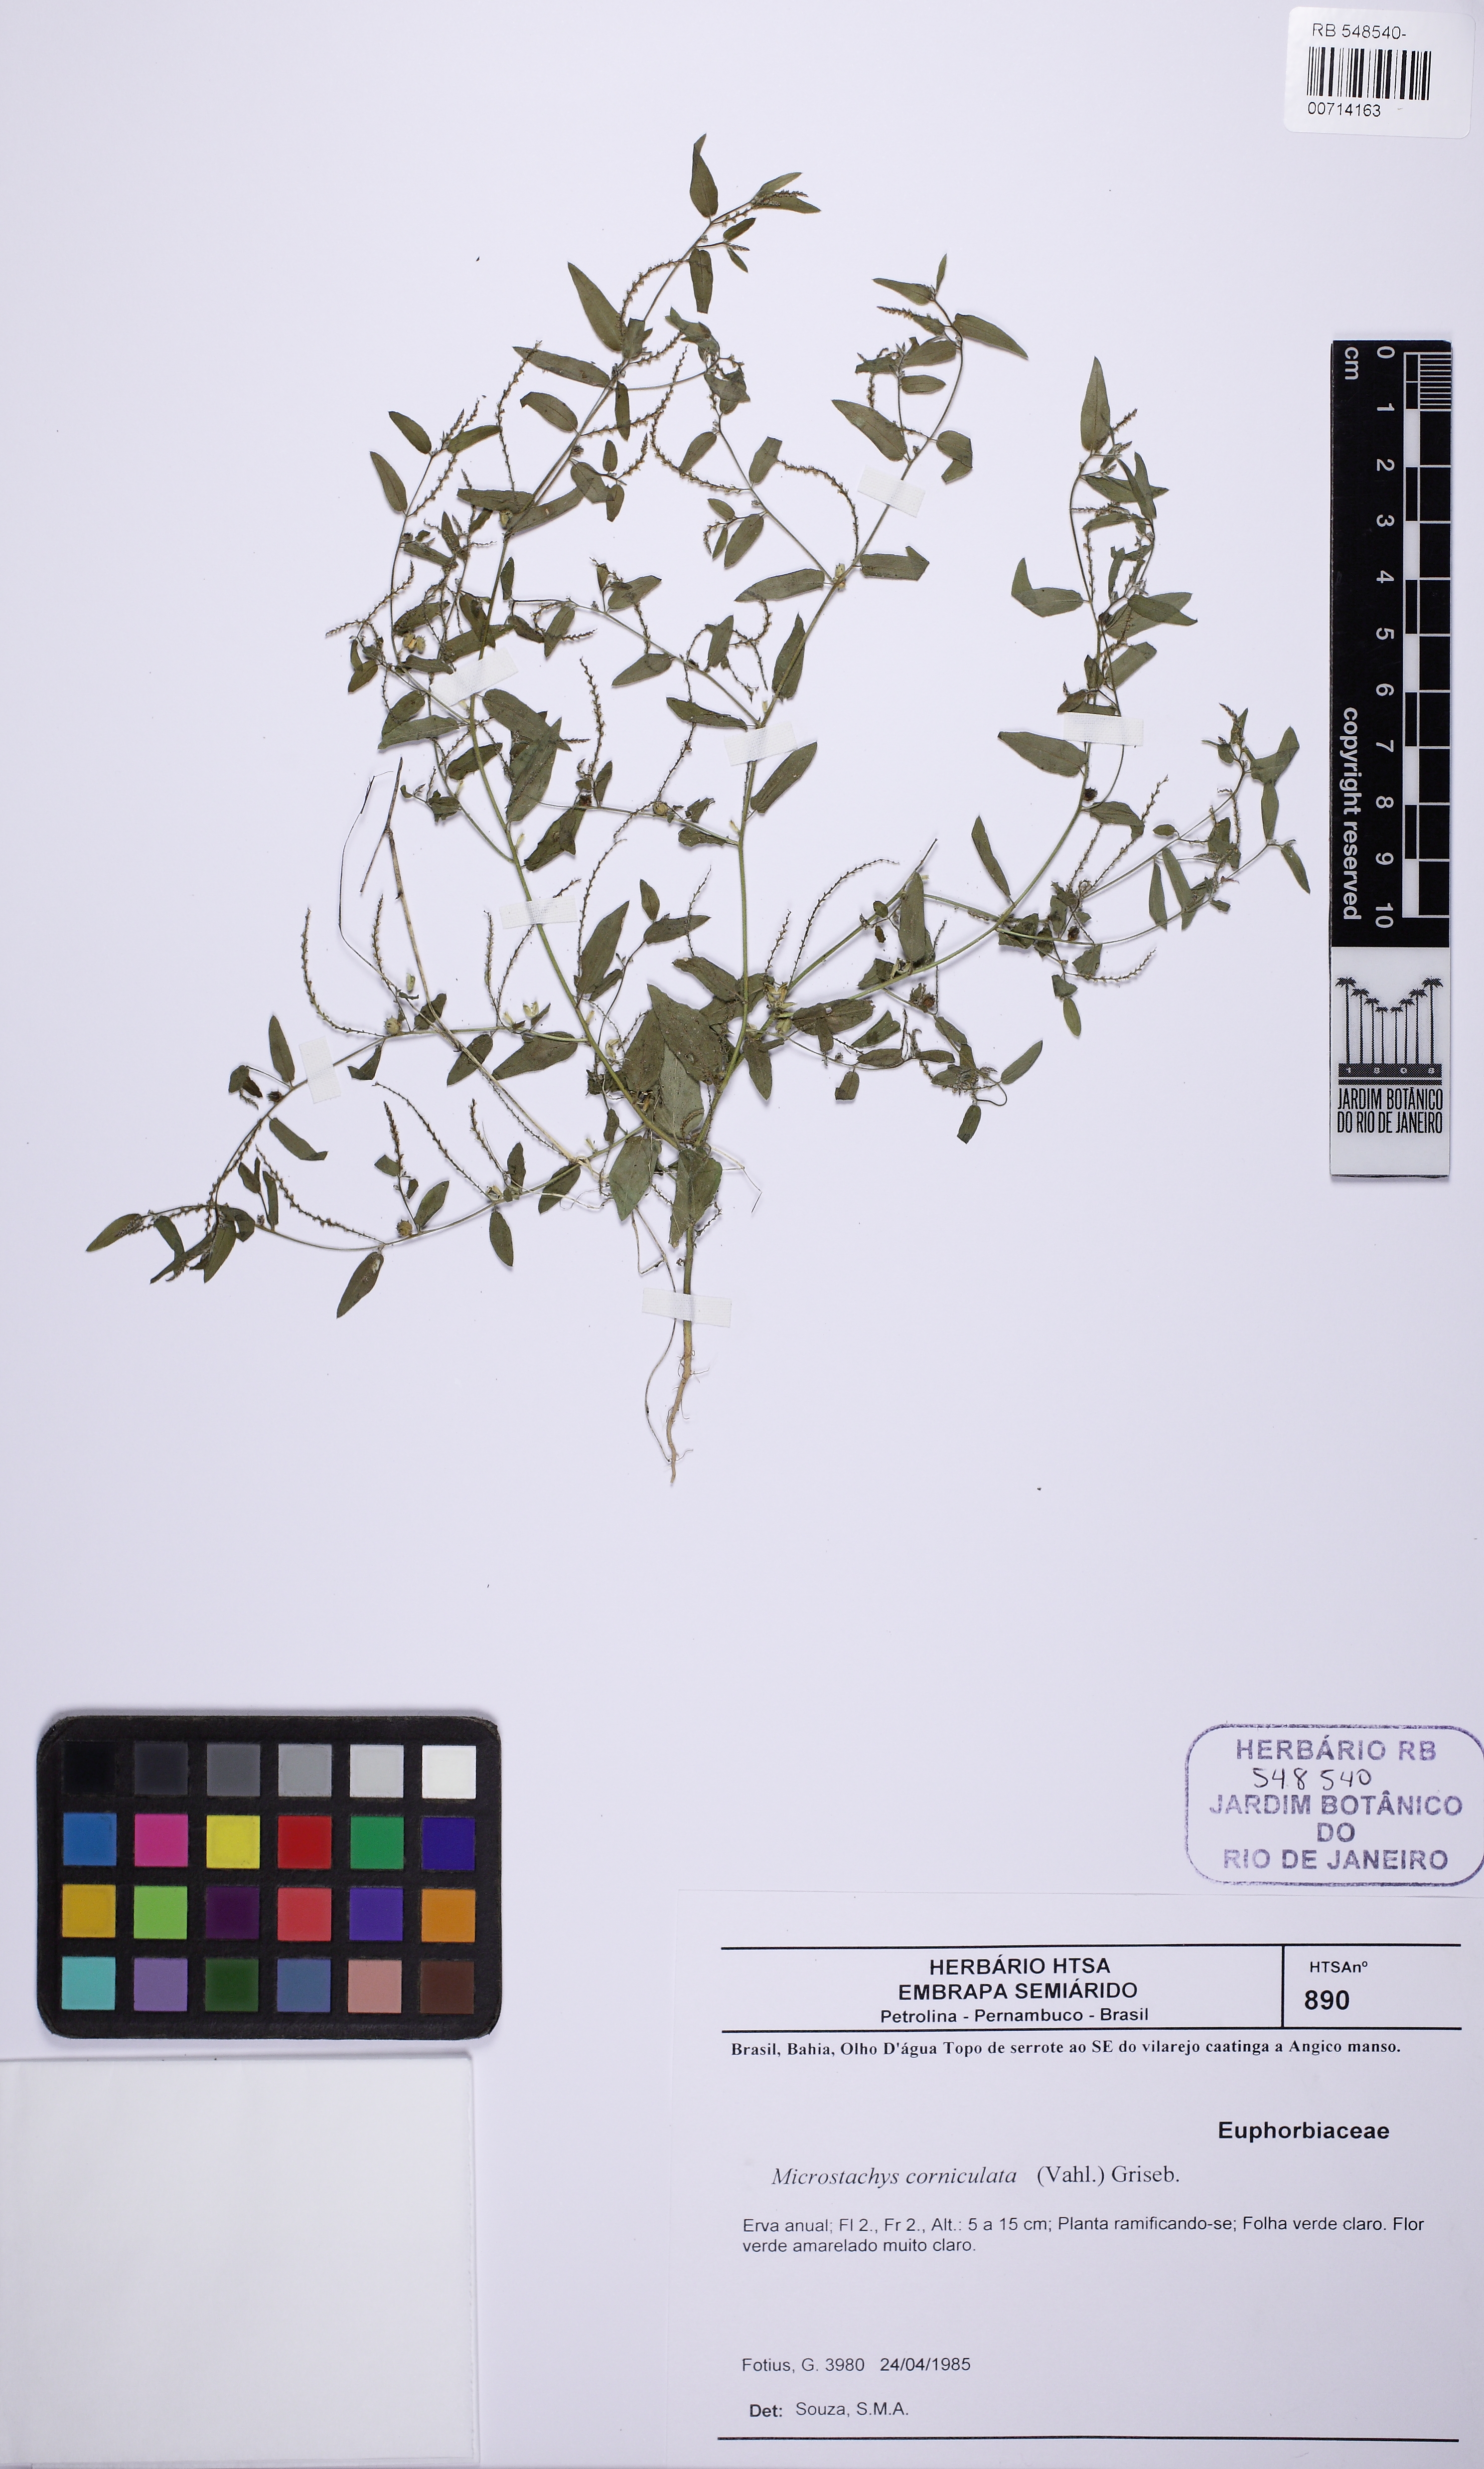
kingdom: Plantae
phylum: Tracheophyta
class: Magnoliopsida
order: Malpighiales
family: Euphorbiaceae
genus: Microstachys
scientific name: Microstachys corniculata
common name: Hato tejas
